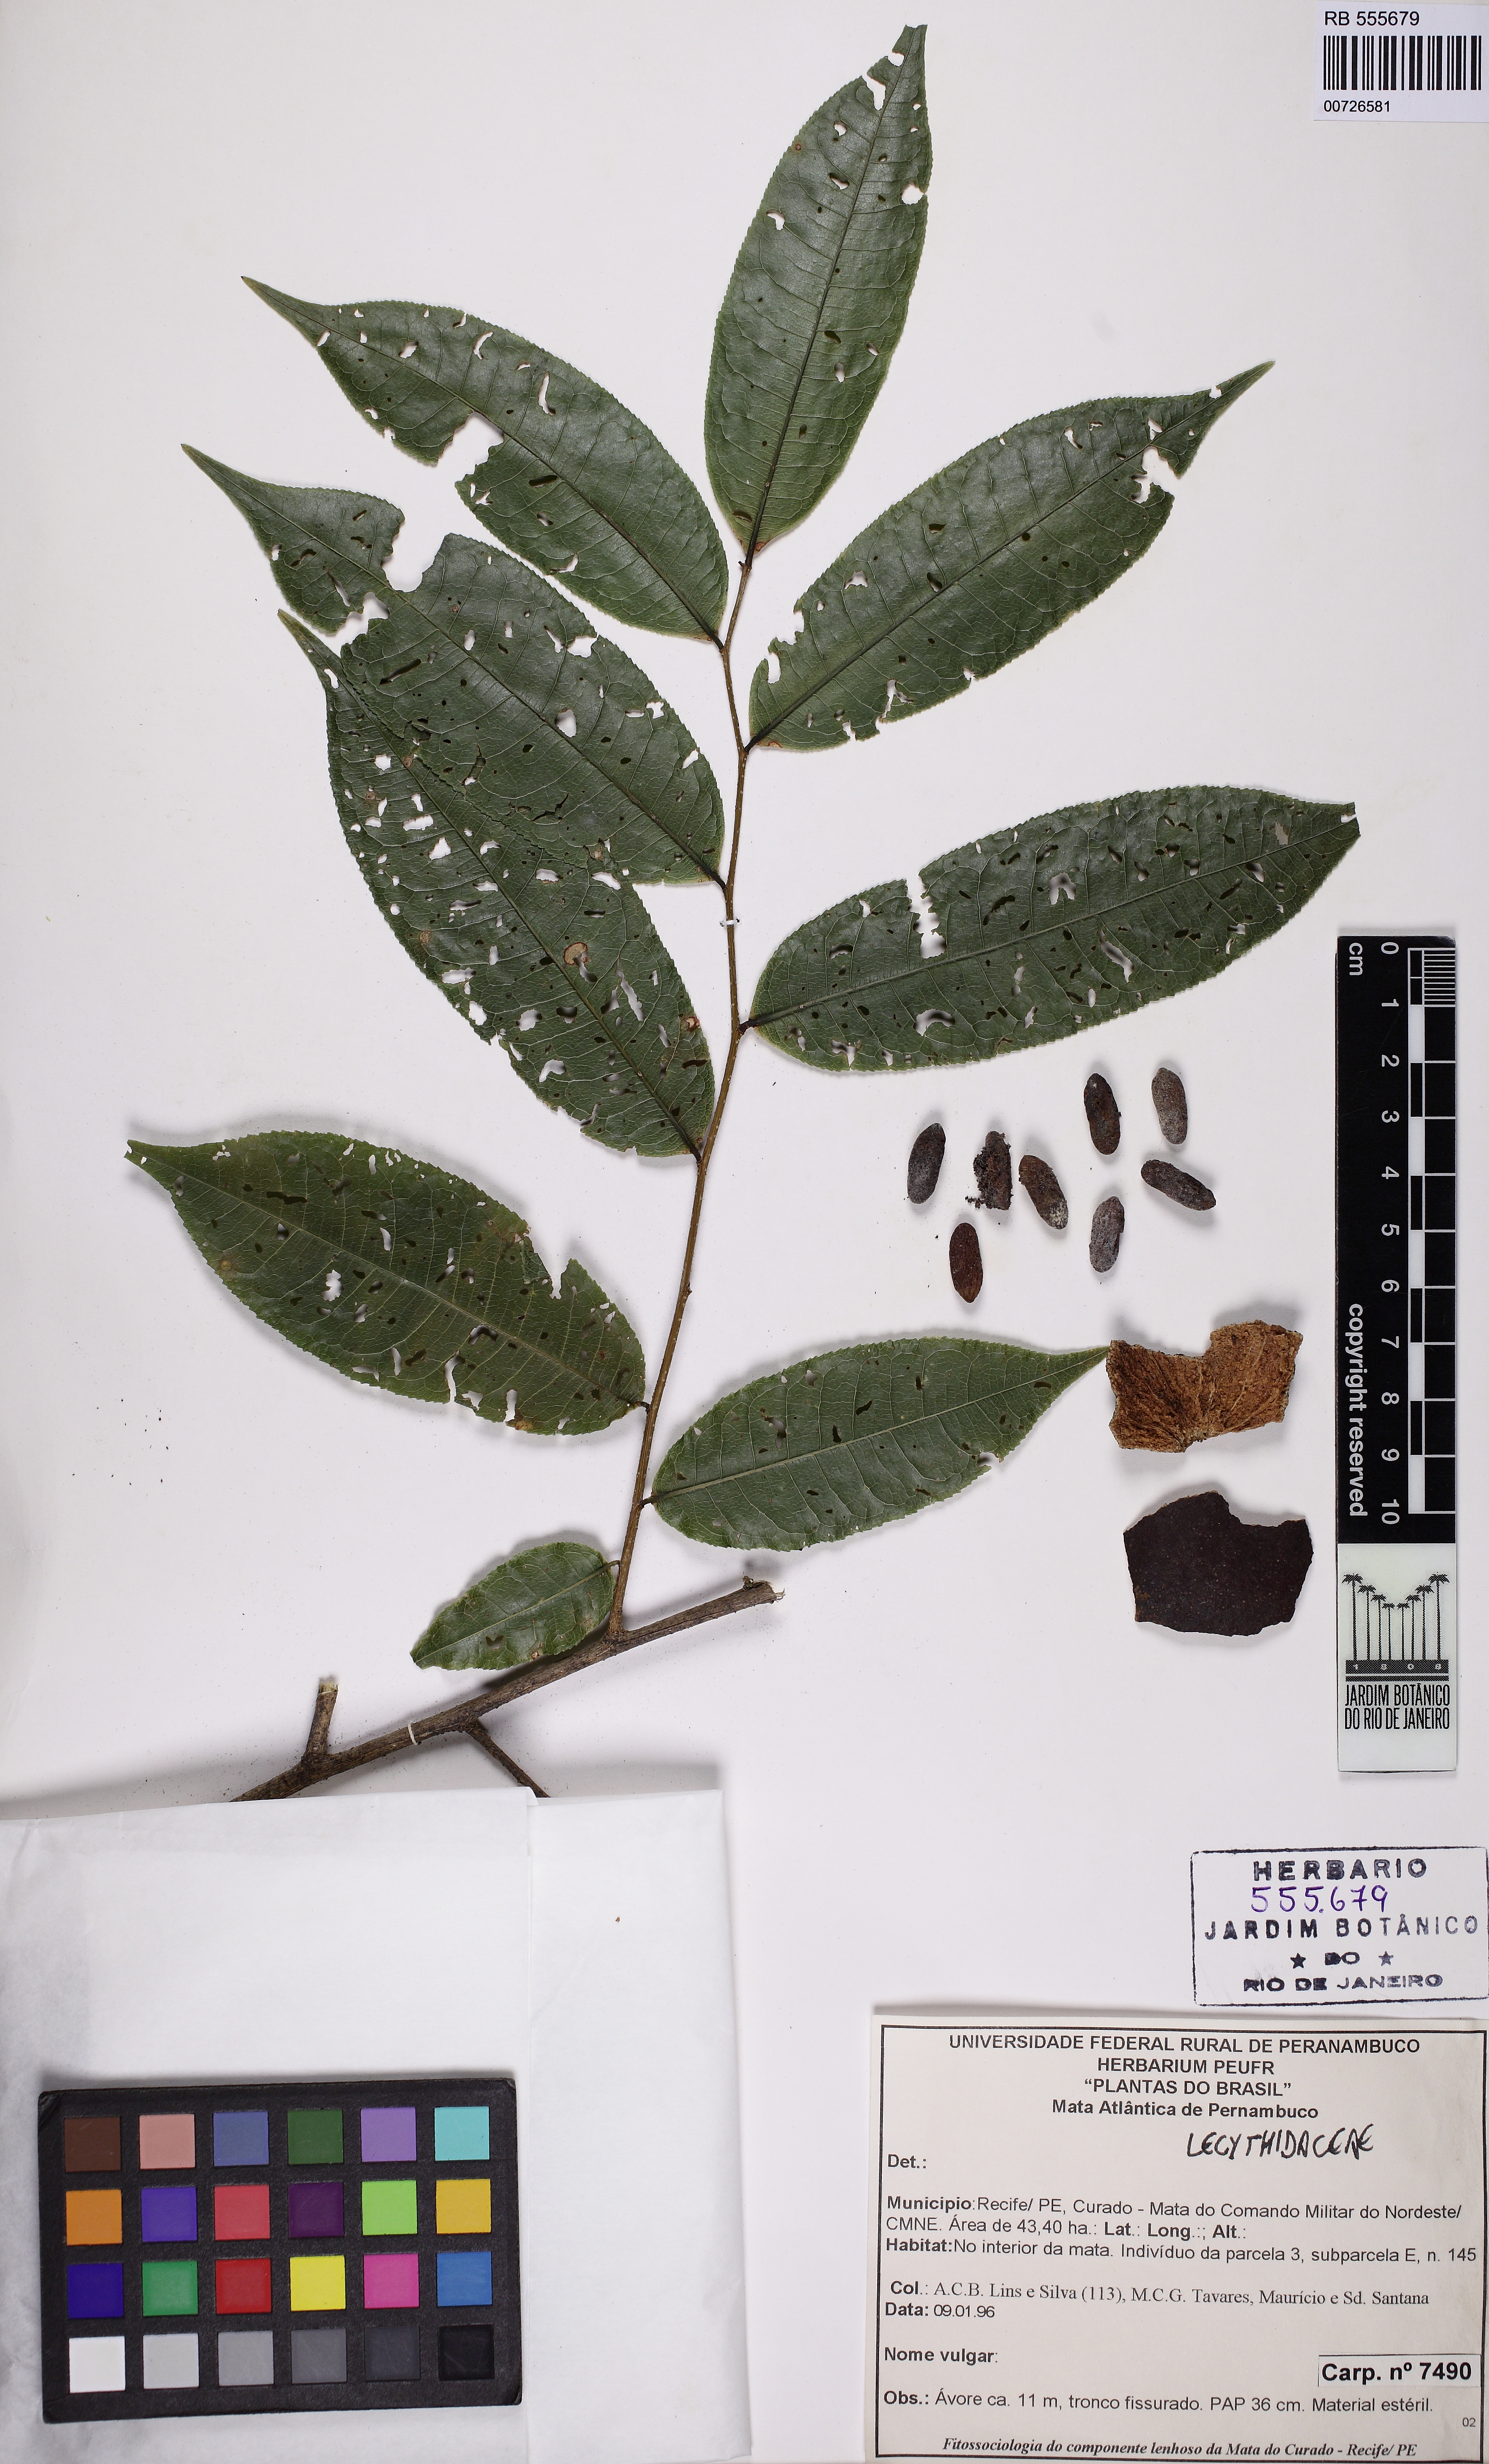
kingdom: Plantae
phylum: Tracheophyta
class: Magnoliopsida
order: Ericales
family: Lecythidaceae
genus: Lecythis
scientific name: Lecythis pisonis
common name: Paradise-nut
